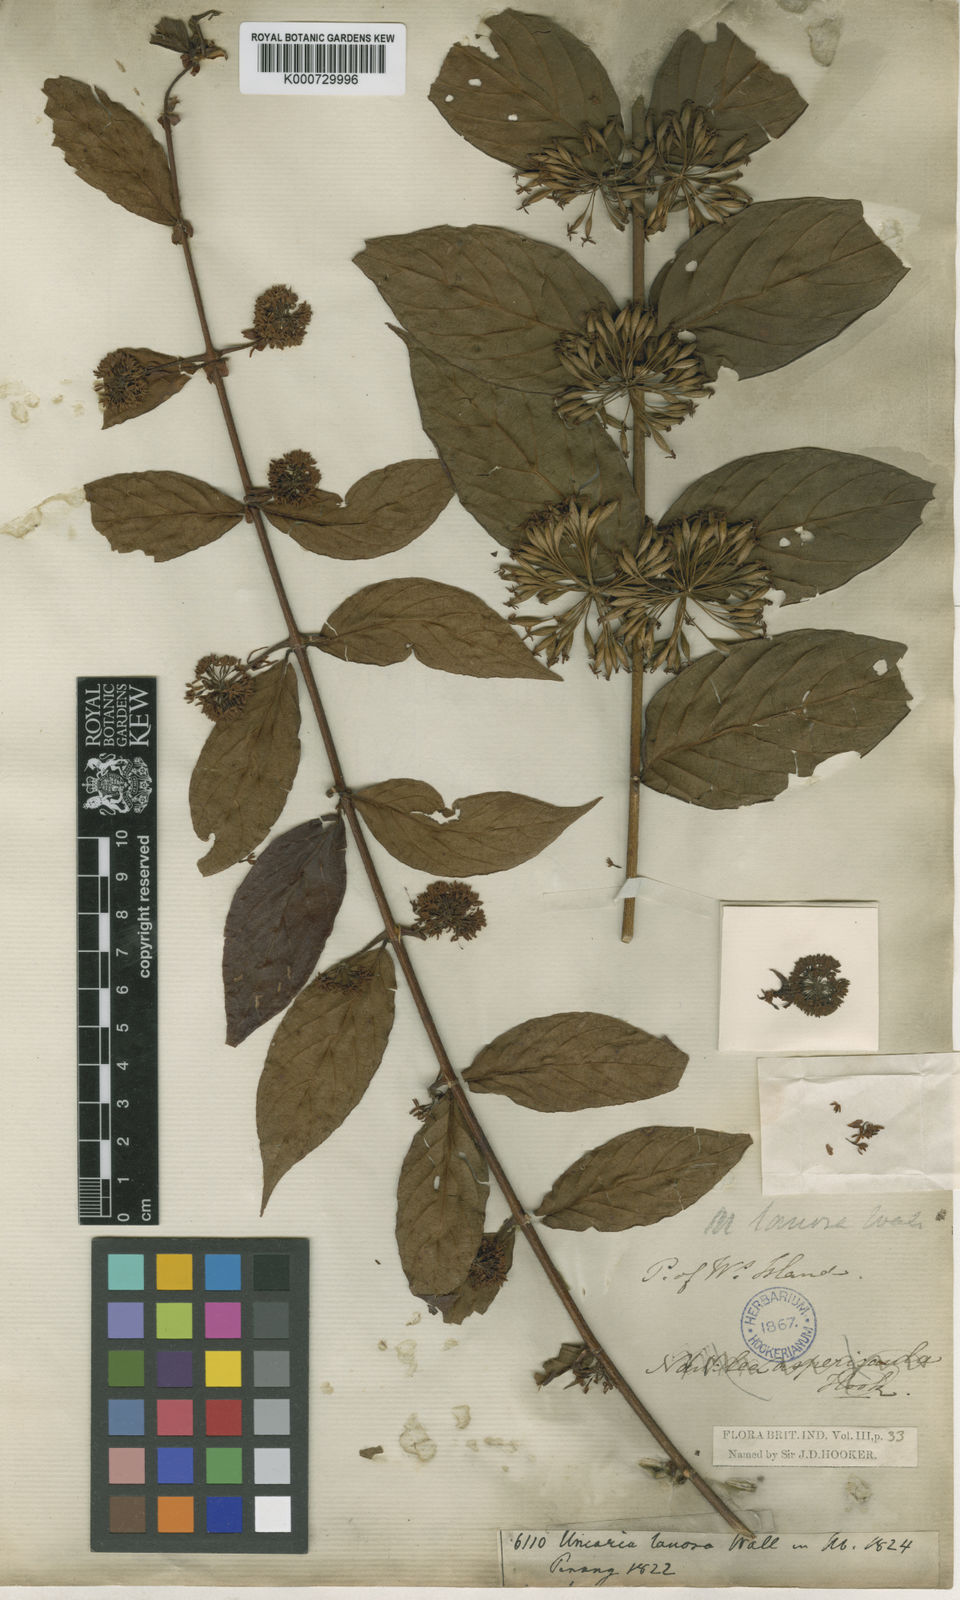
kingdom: Plantae
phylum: Tracheophyta
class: Magnoliopsida
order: Gentianales
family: Rubiaceae
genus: Uncaria
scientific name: Uncaria lanosa
